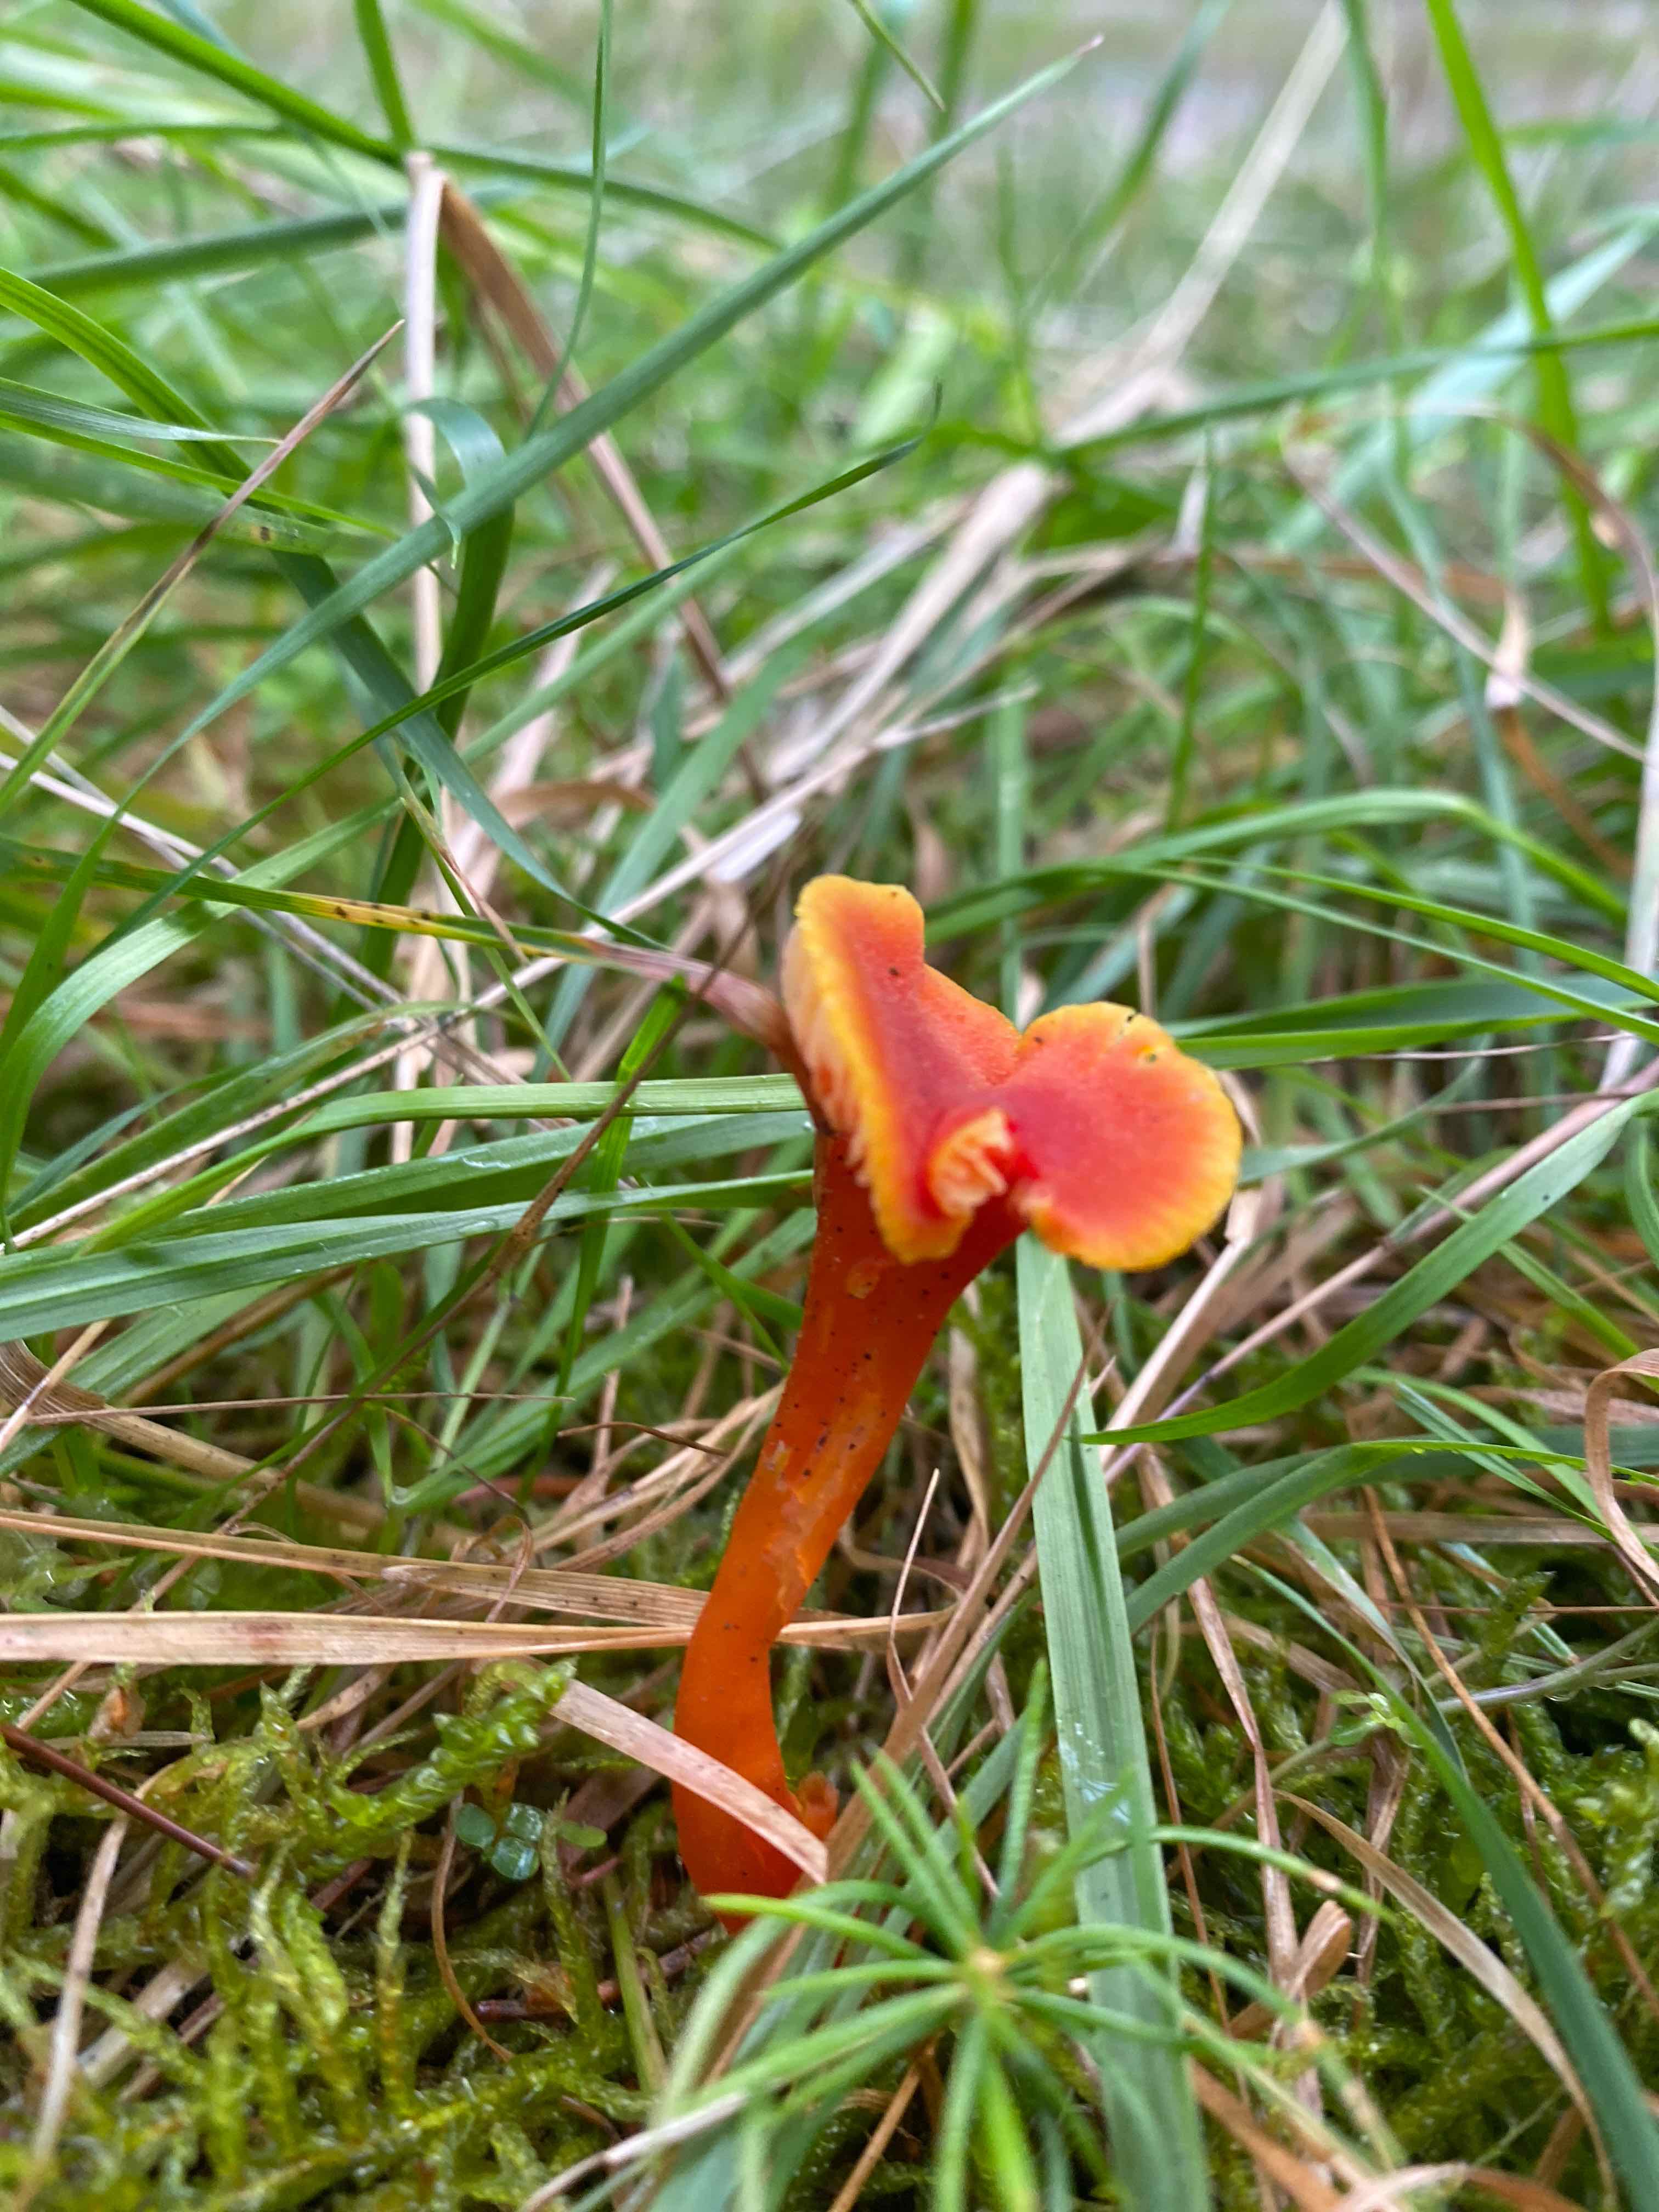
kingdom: Fungi
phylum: Basidiomycota
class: Agaricomycetes
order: Agaricales
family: Hygrophoraceae
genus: Hygrocybe
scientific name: Hygrocybe miniata
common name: mønje-vokshat
